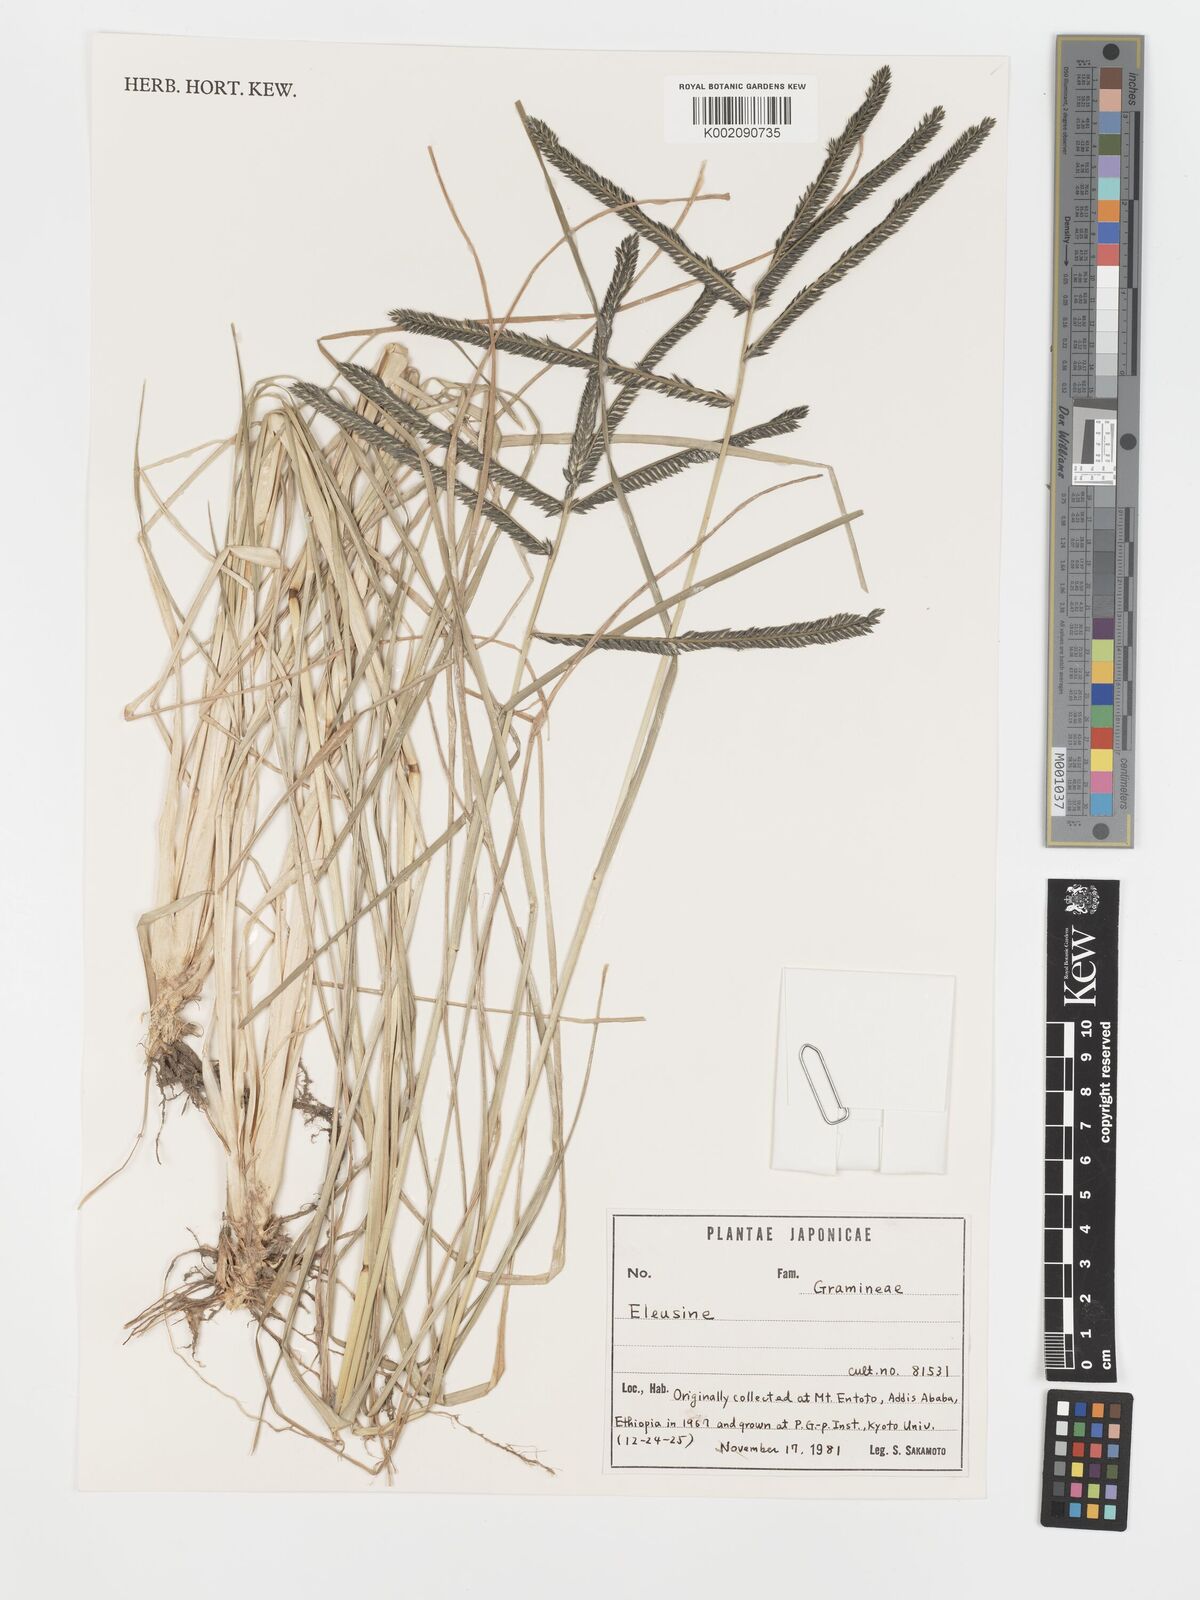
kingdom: Plantae
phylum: Tracheophyta
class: Liliopsida
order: Poales
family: Poaceae
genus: Eleusine
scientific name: Eleusine
